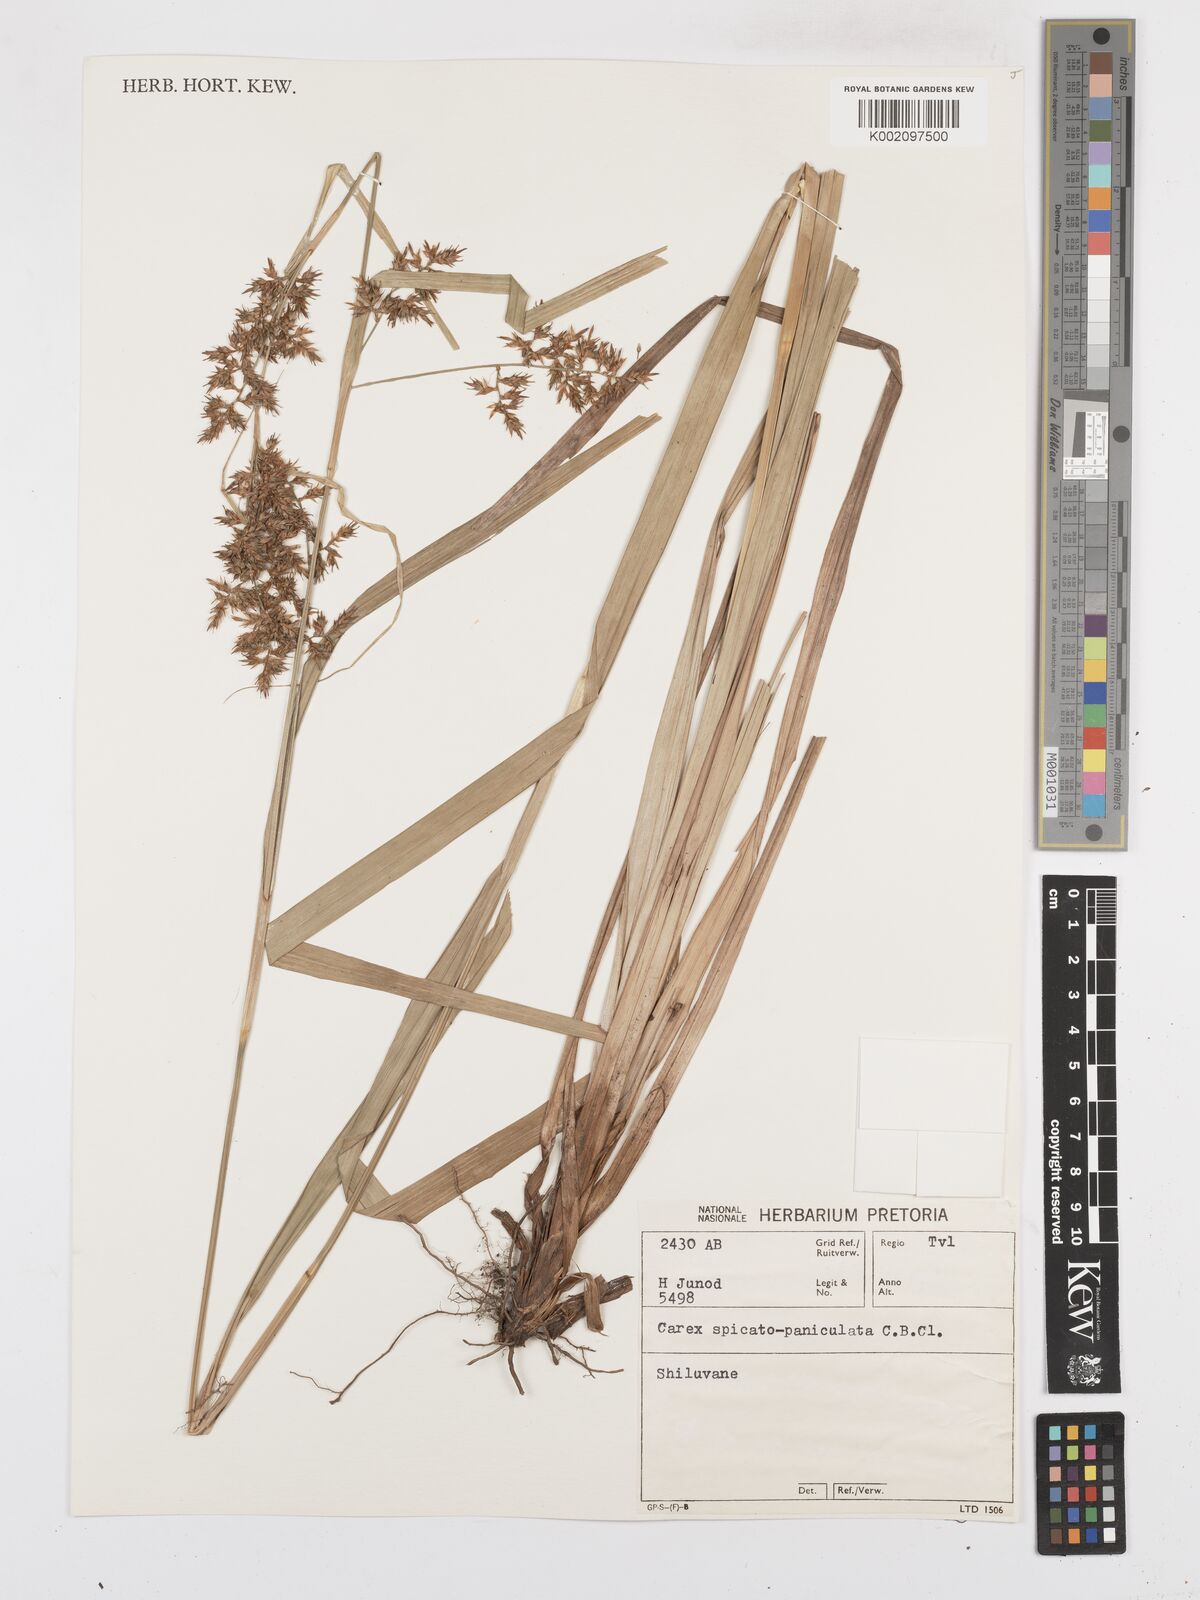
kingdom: Plantae
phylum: Tracheophyta
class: Liliopsida
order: Poales
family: Cyperaceae
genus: Carex
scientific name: Carex spicatopaniculata
